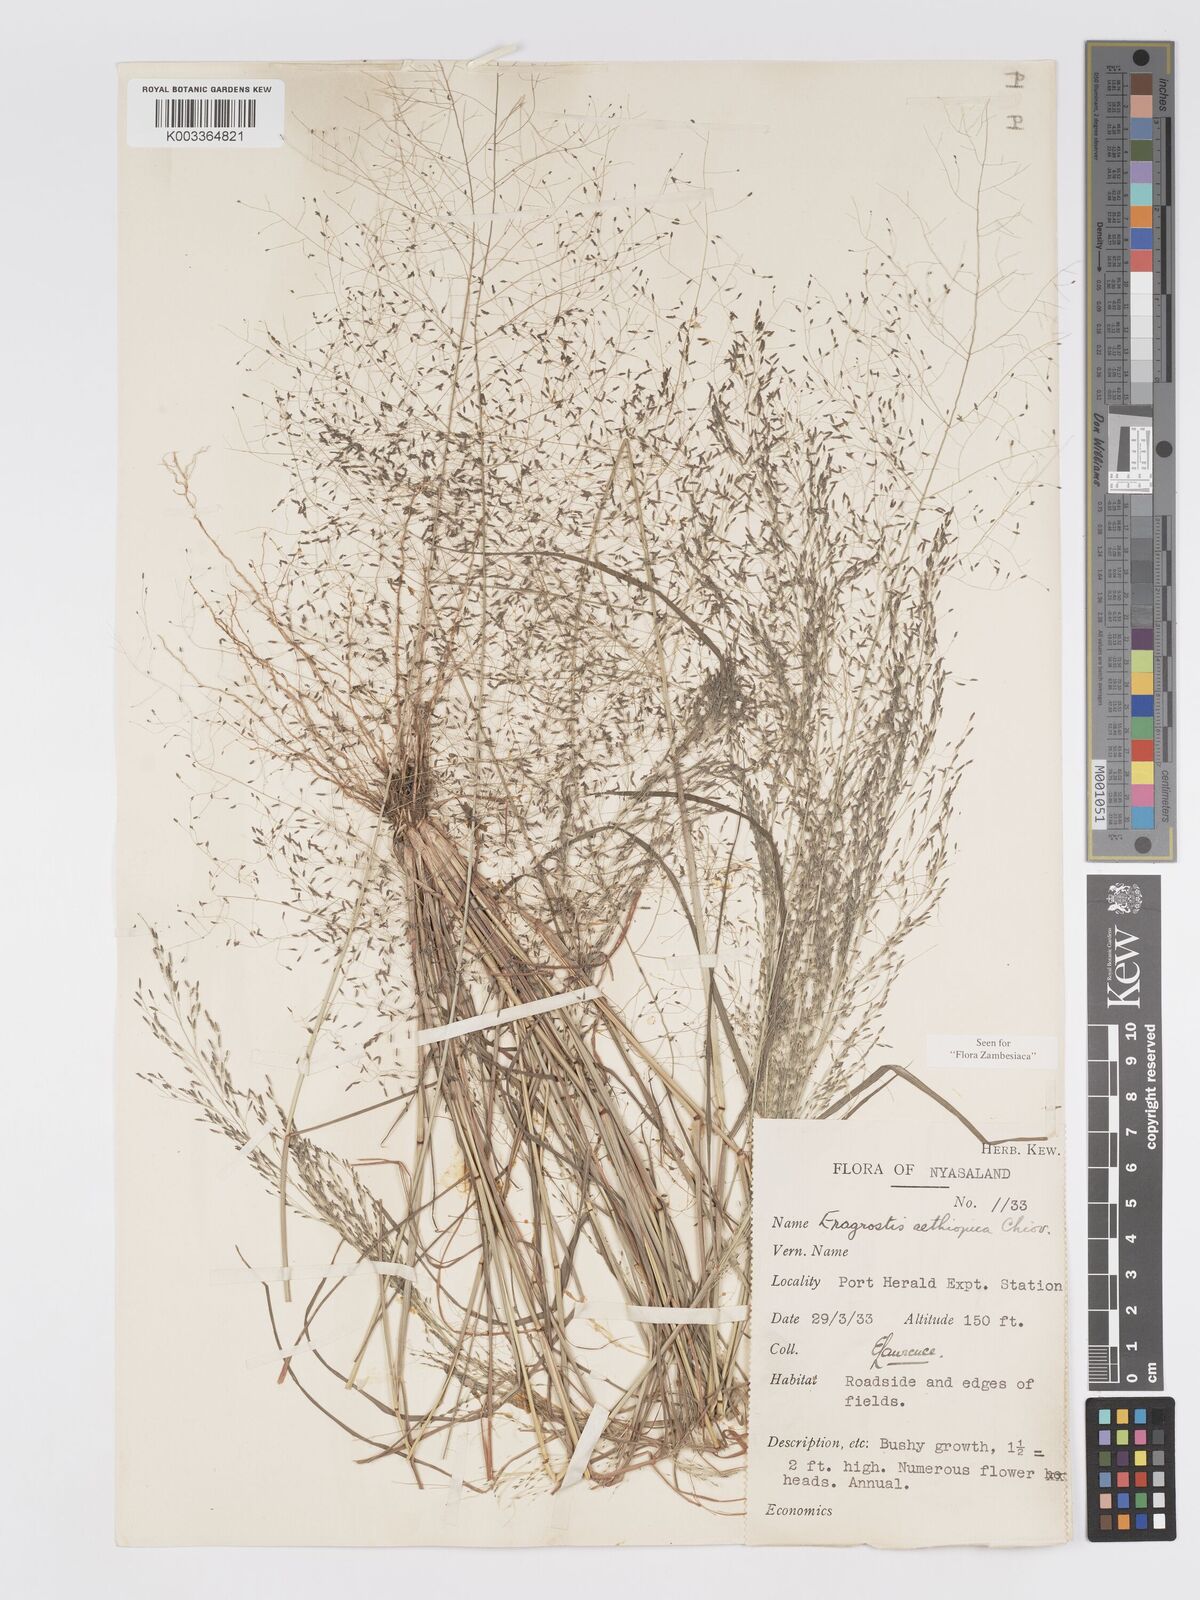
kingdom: Plantae
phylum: Tracheophyta
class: Liliopsida
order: Poales
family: Poaceae
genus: Eragrostis
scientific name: Eragrostis aethiopica
